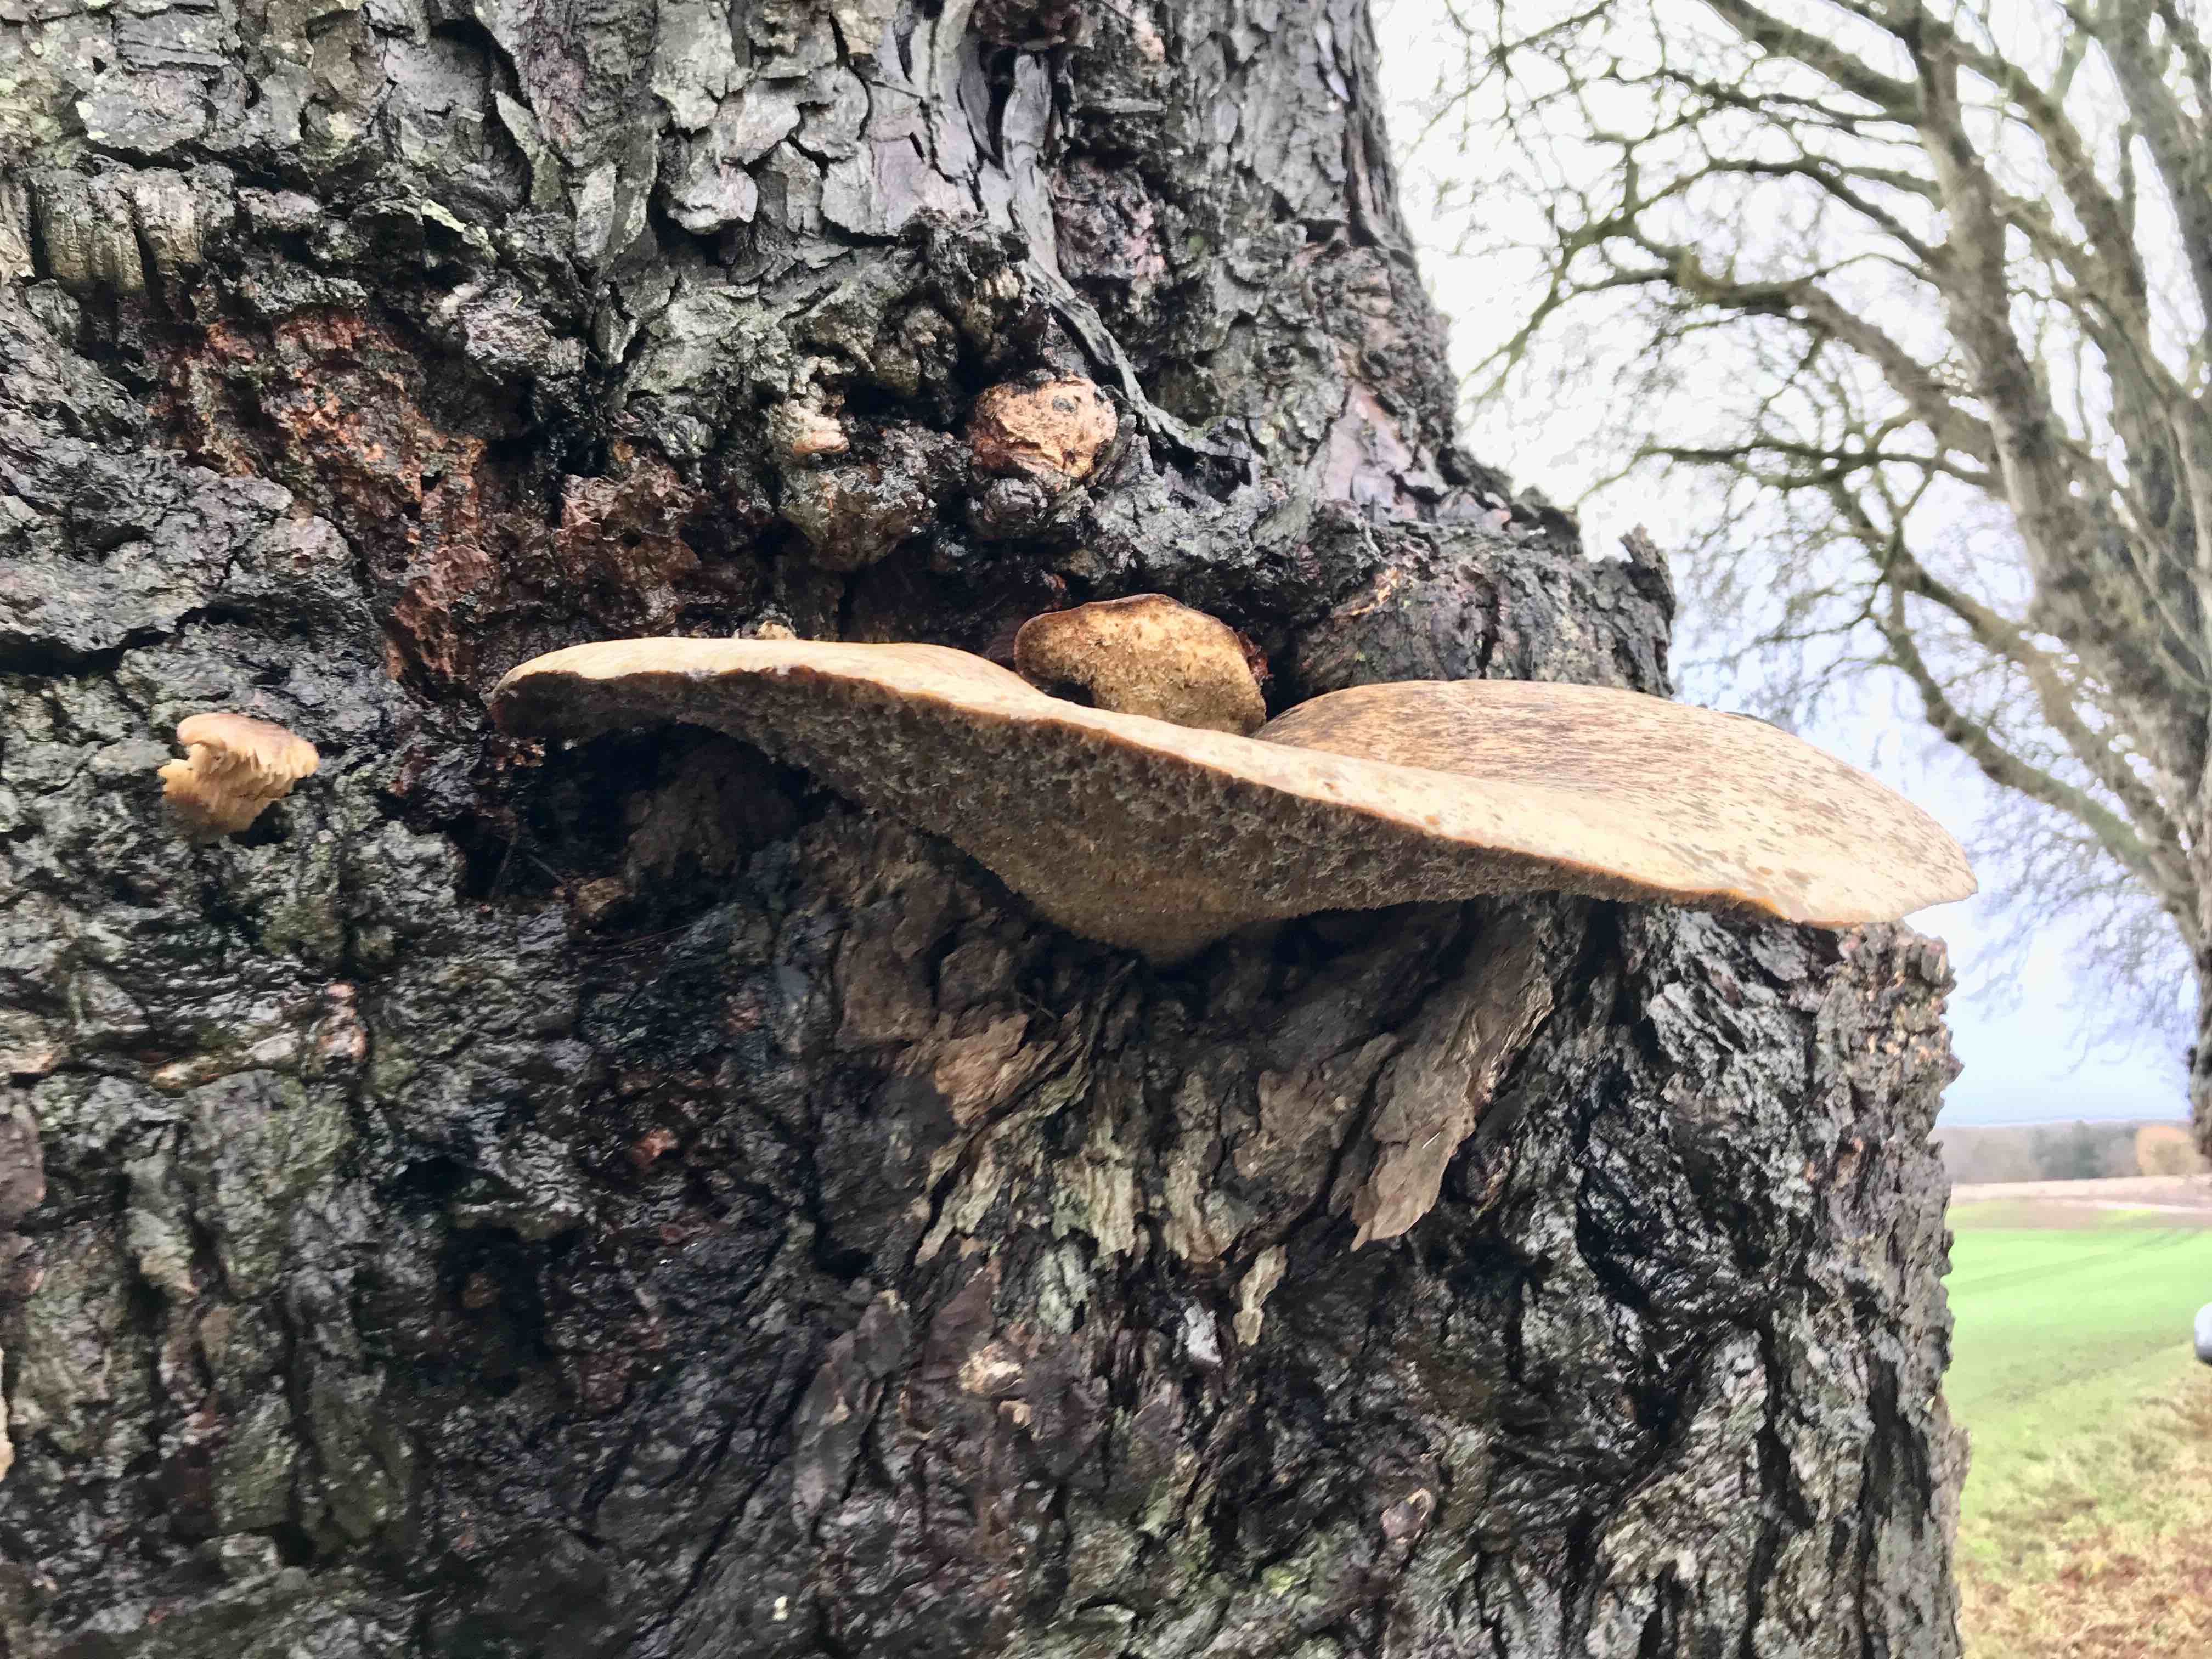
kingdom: Fungi
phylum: Basidiomycota
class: Agaricomycetes
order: Polyporales
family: Polyporaceae
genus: Cerioporus
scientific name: Cerioporus squamosus
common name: skællet stilkporesvamp
